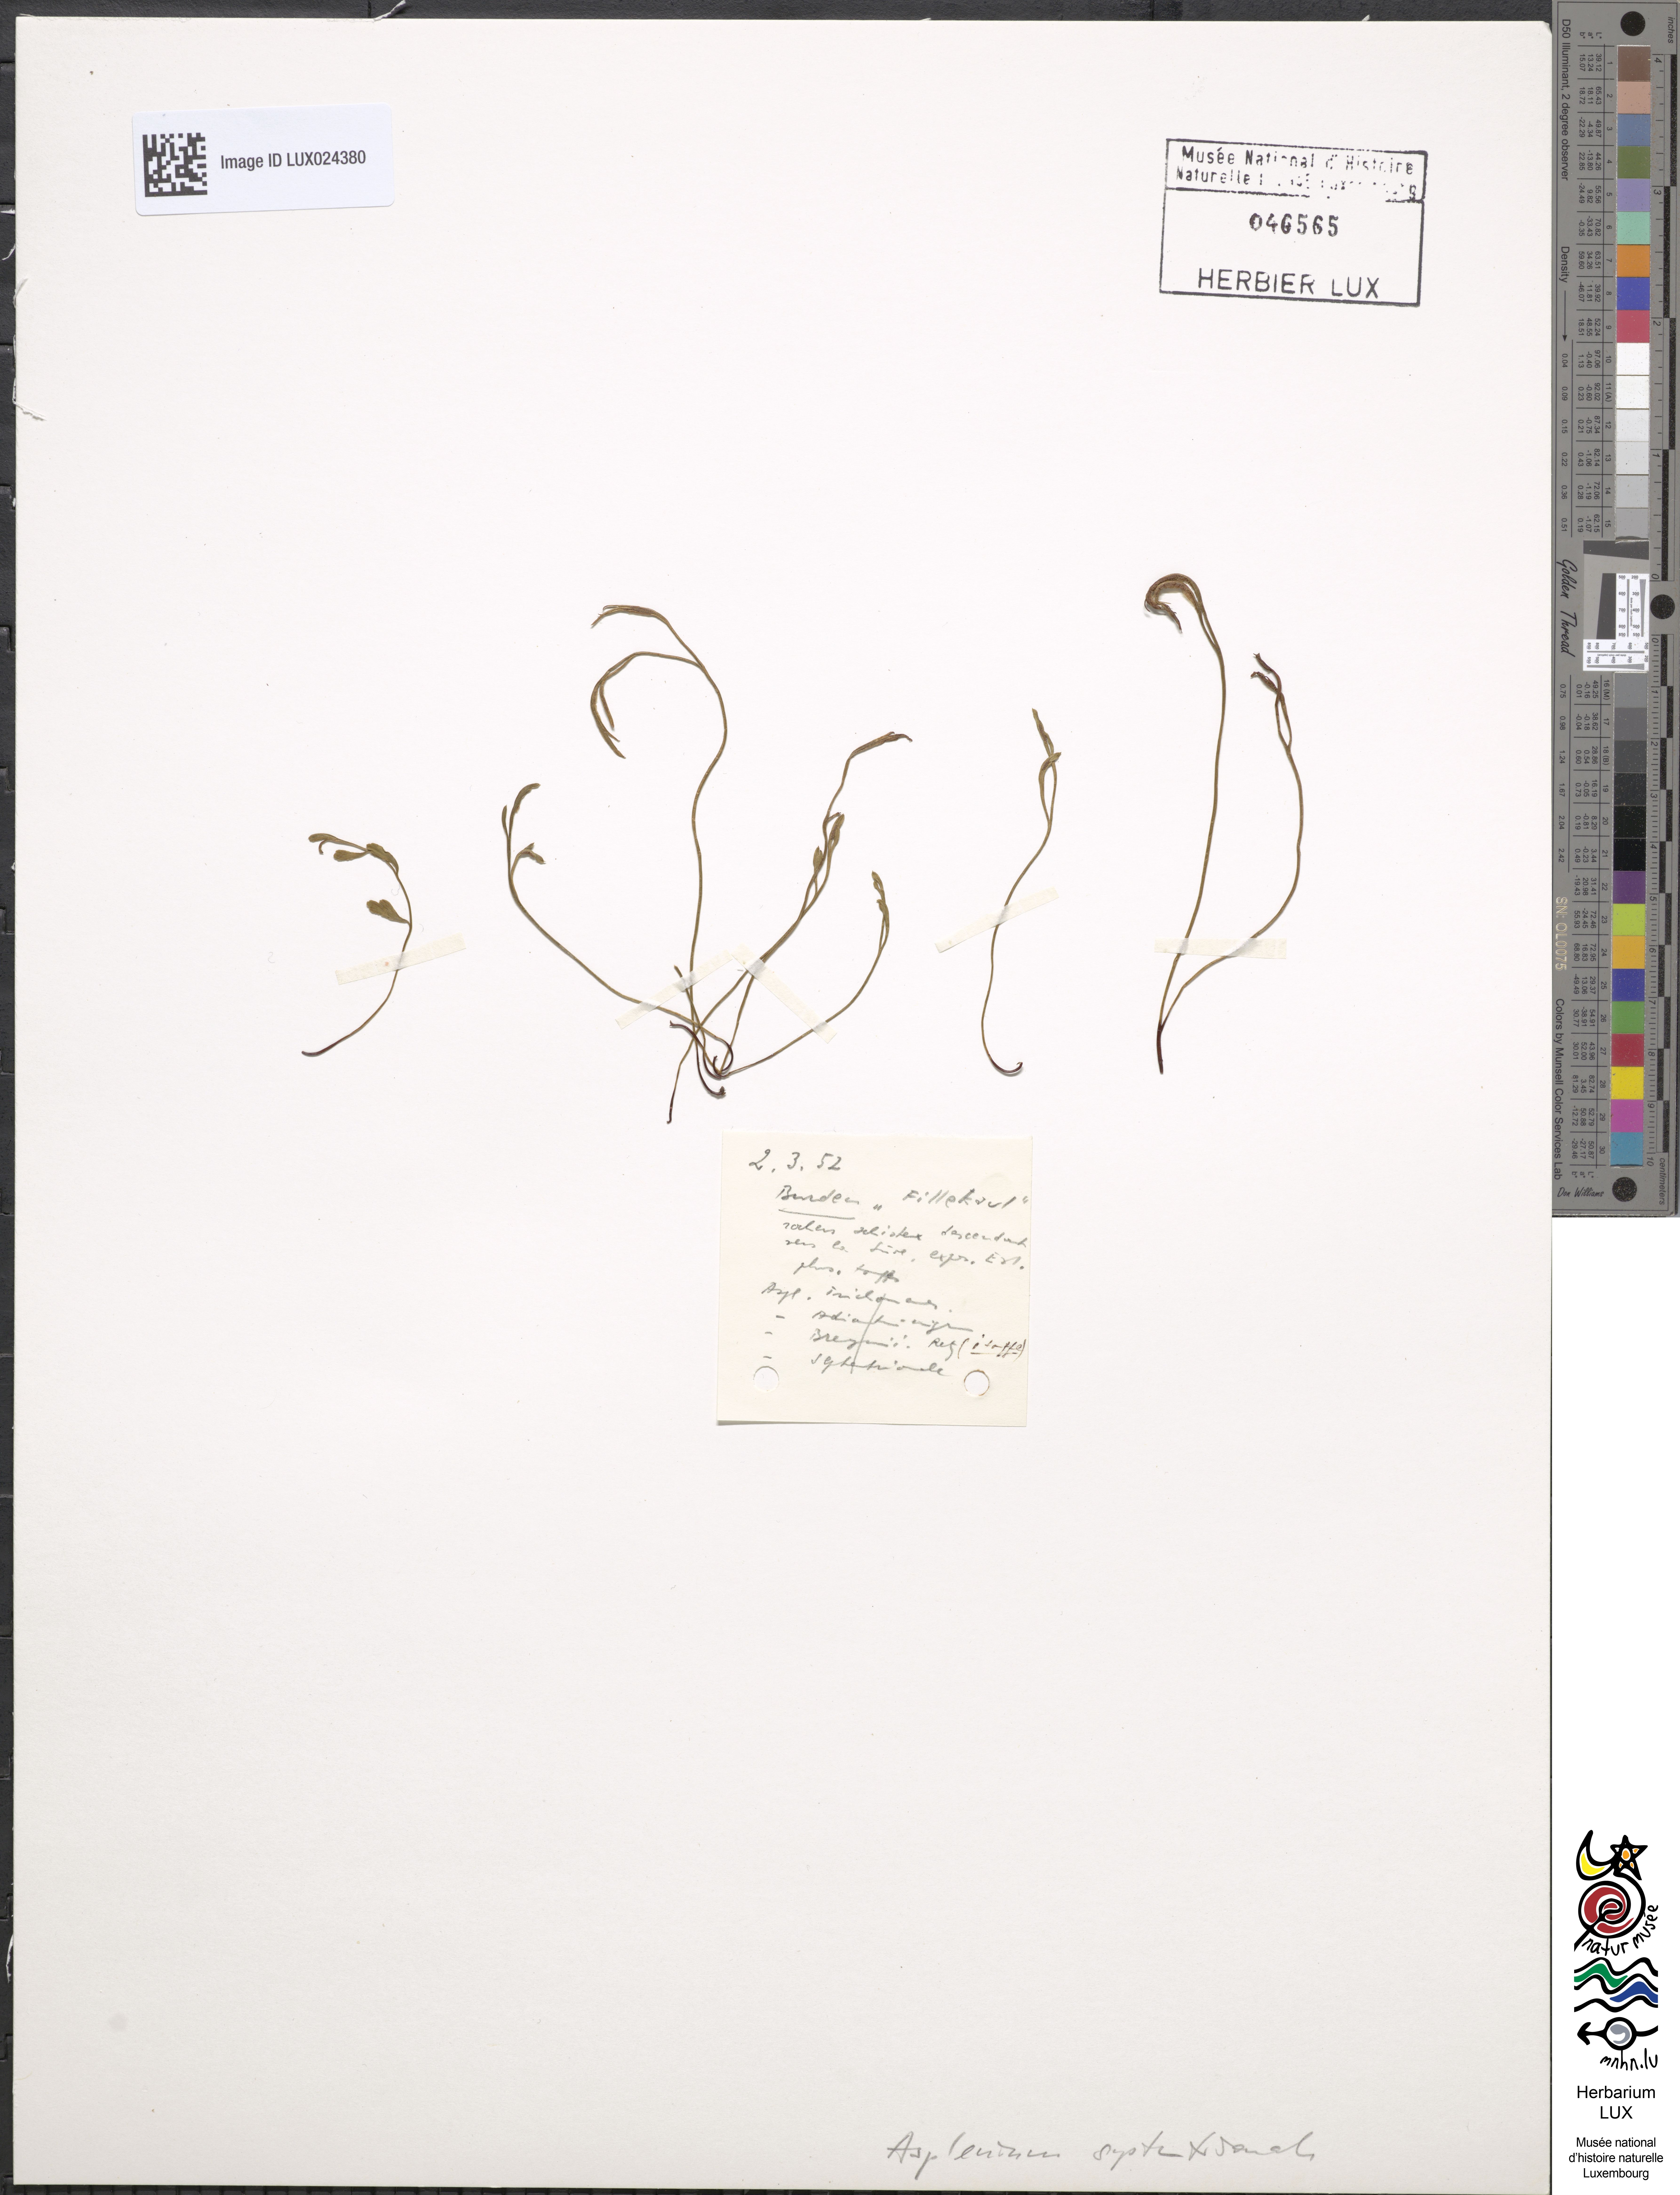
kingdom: Plantae
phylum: Tracheophyta
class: Polypodiopsida
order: Polypodiales
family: Aspleniaceae
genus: Asplenium
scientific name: Asplenium septentrionale
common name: Forked spleenwort
